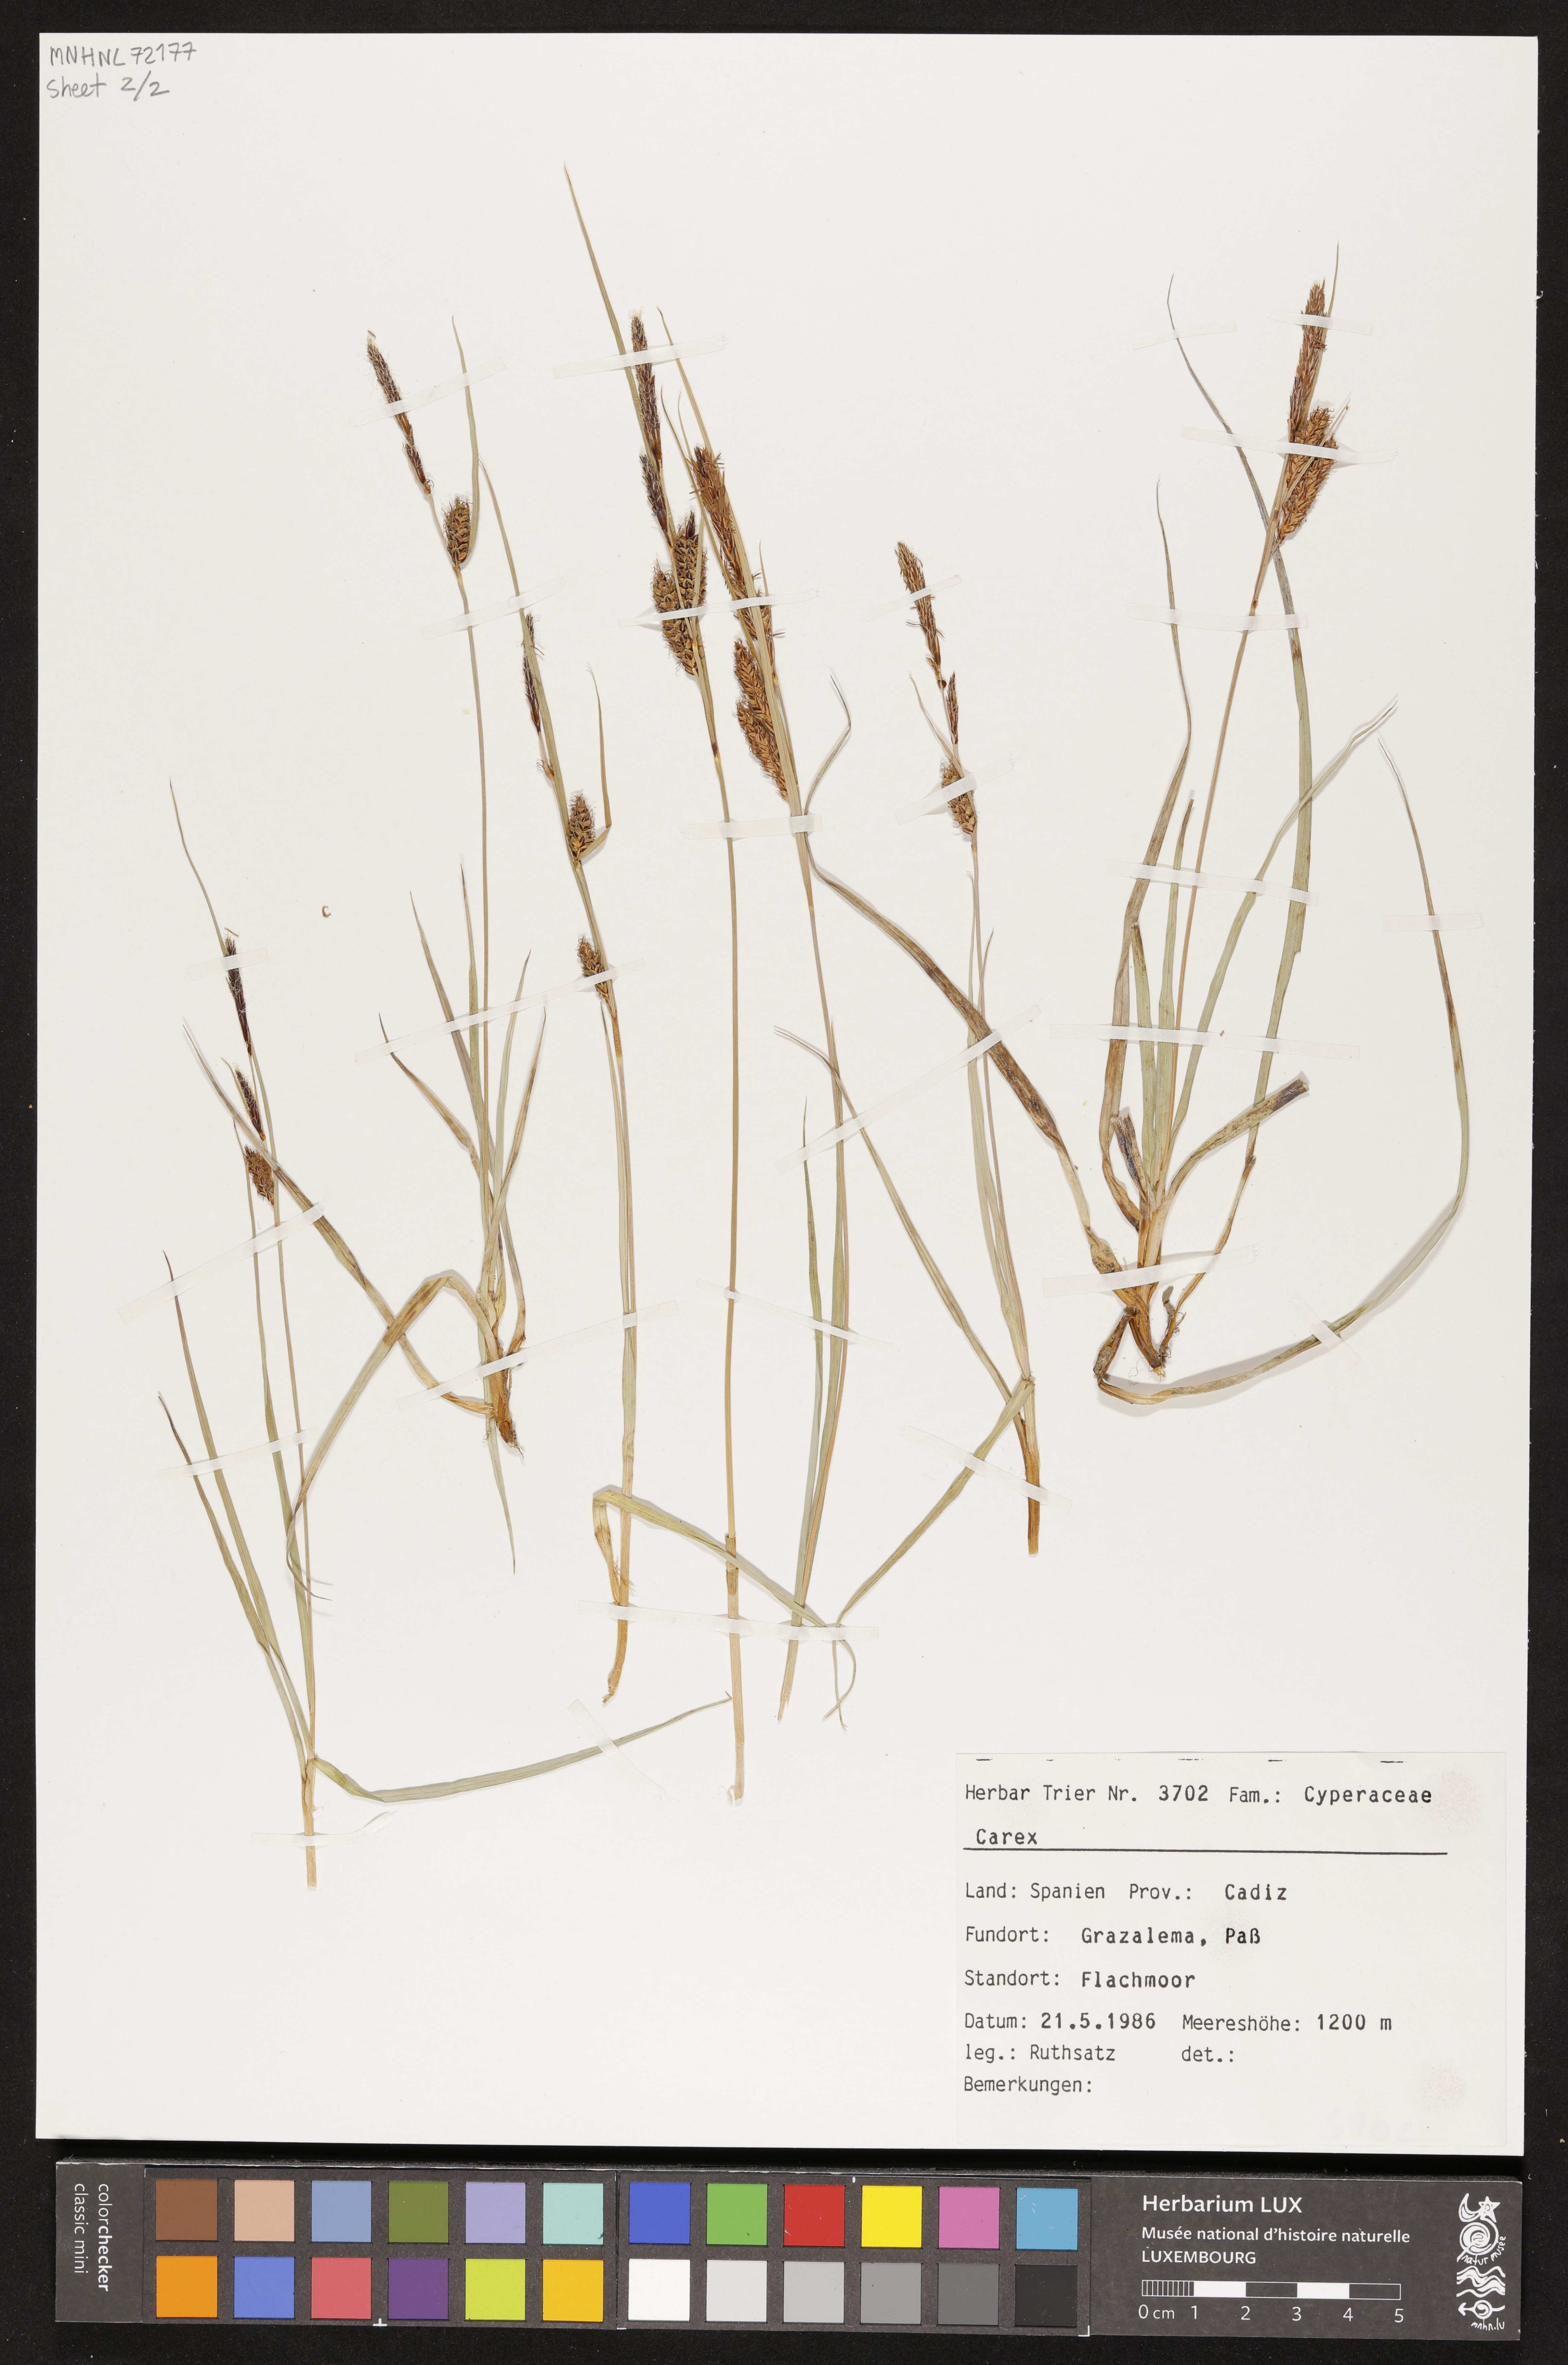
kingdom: Plantae
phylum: Tracheophyta
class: Liliopsida
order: Poales
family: Cyperaceae
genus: Carex
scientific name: Carex
